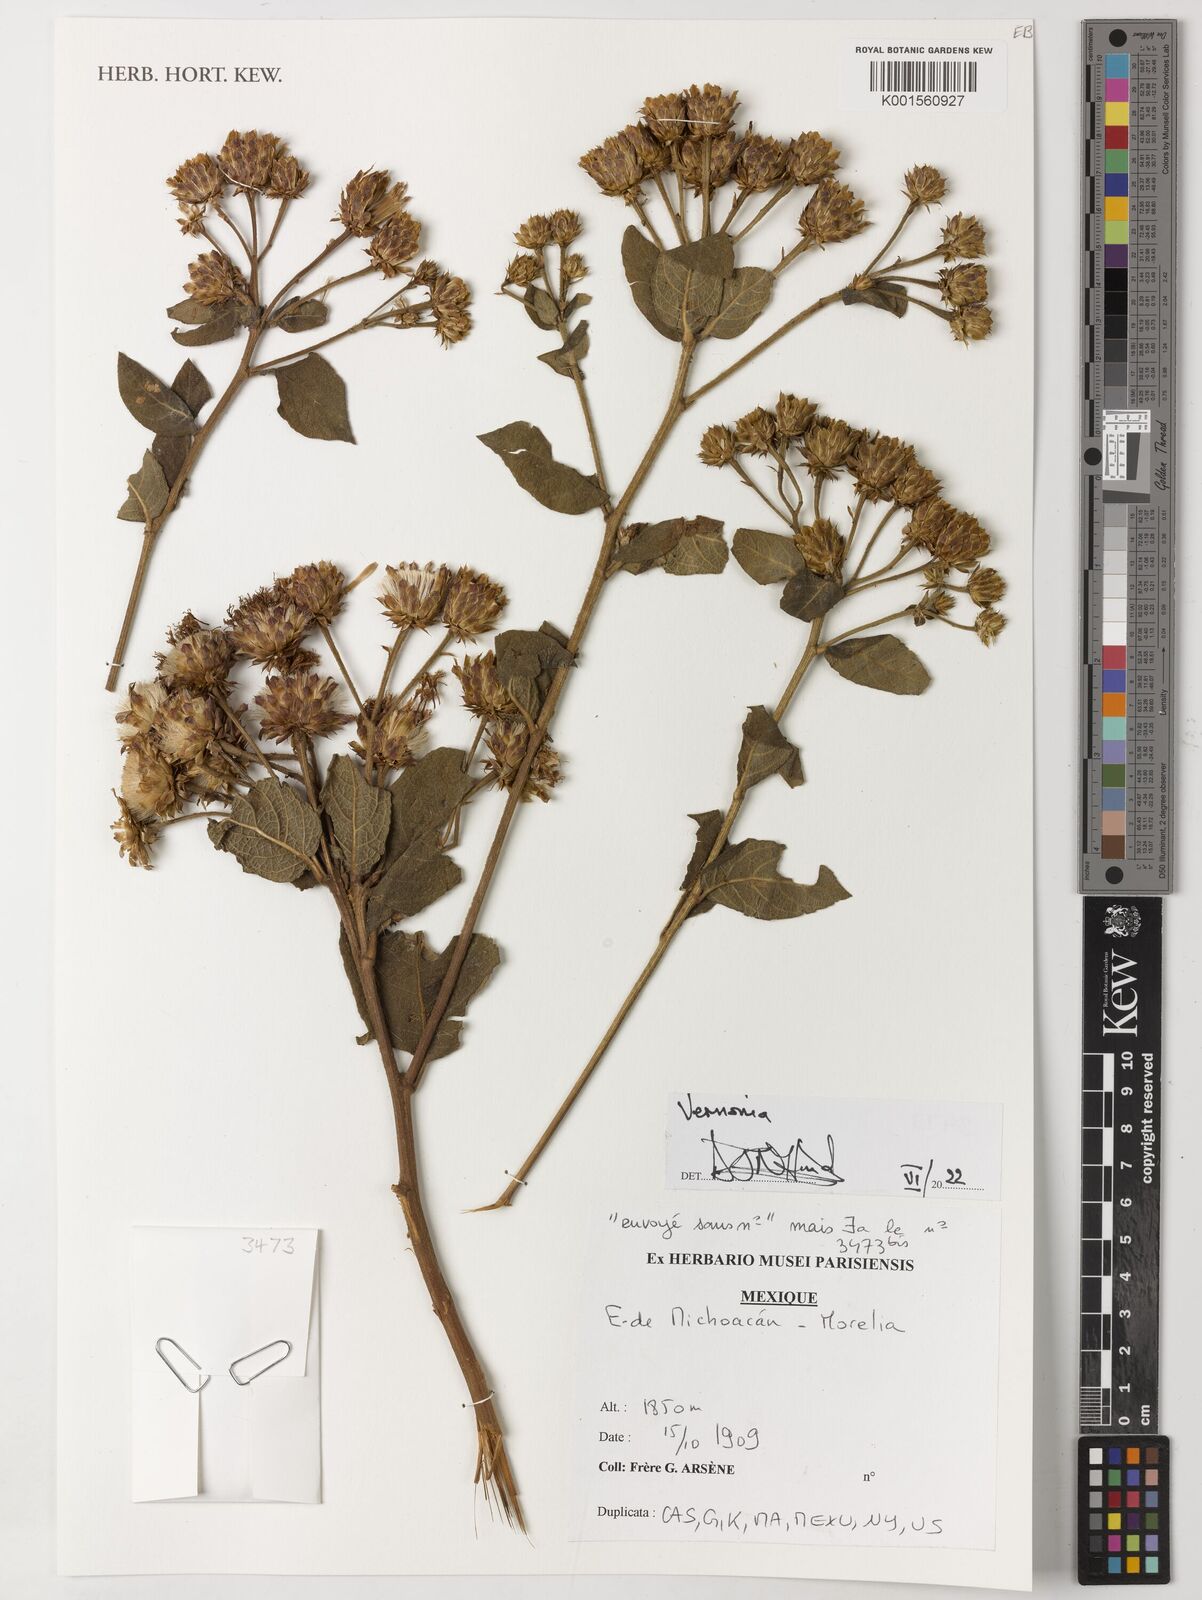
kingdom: Plantae
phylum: Tracheophyta
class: Magnoliopsida
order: Asterales
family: Asteraceae
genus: Vernonia
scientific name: Vernonia
